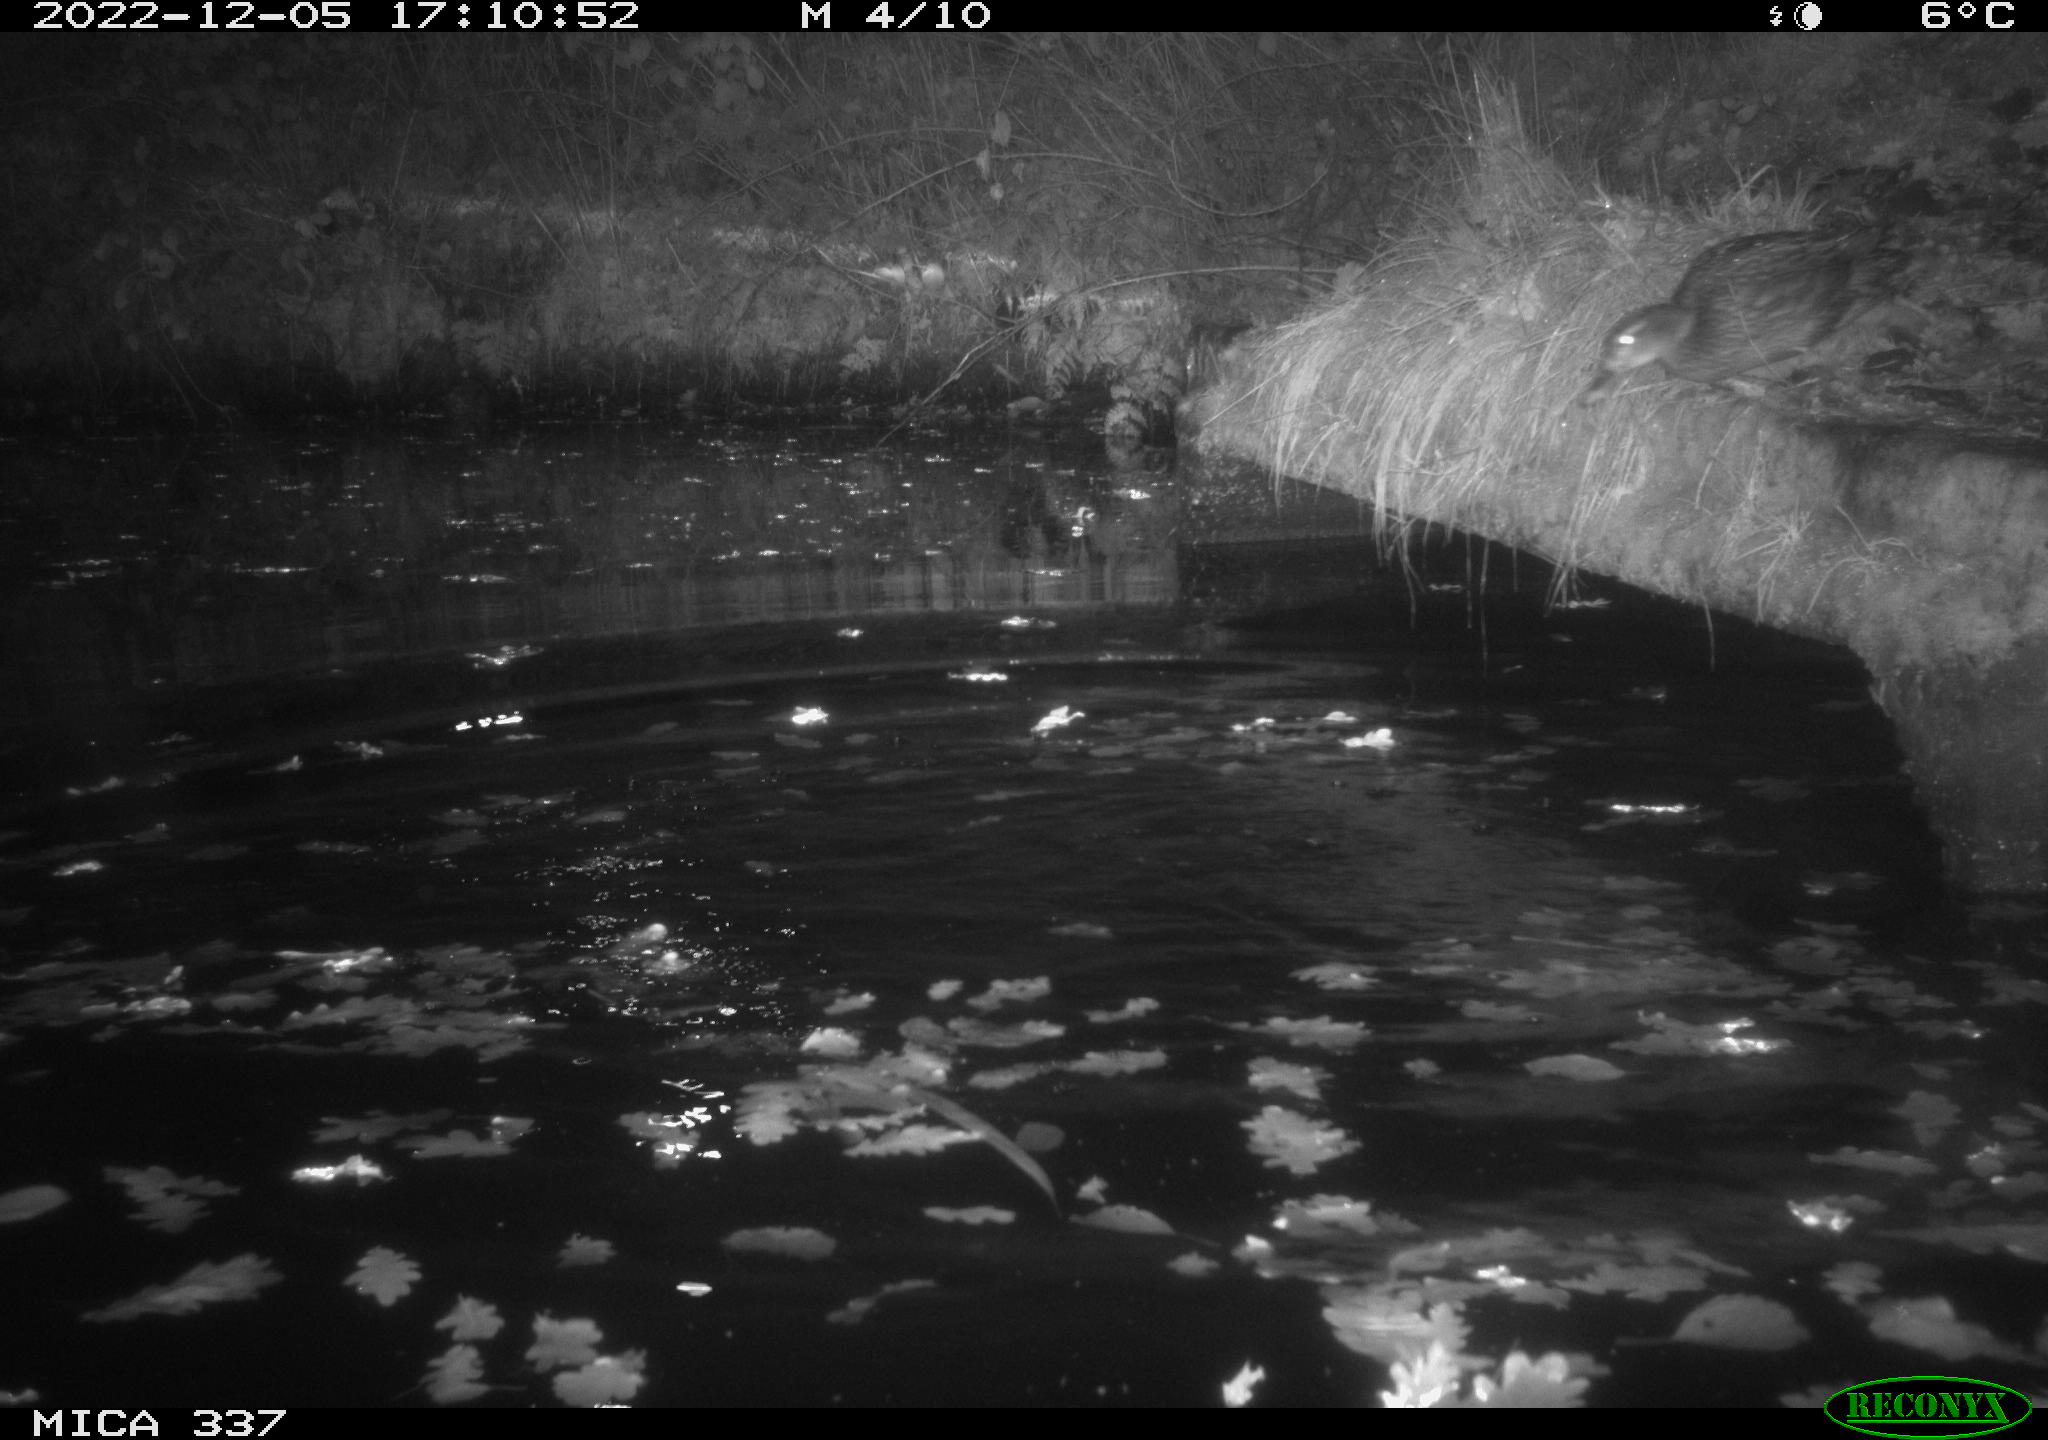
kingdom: Animalia
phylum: Chordata
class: Aves
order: Anseriformes
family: Anatidae
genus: Anas
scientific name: Anas
